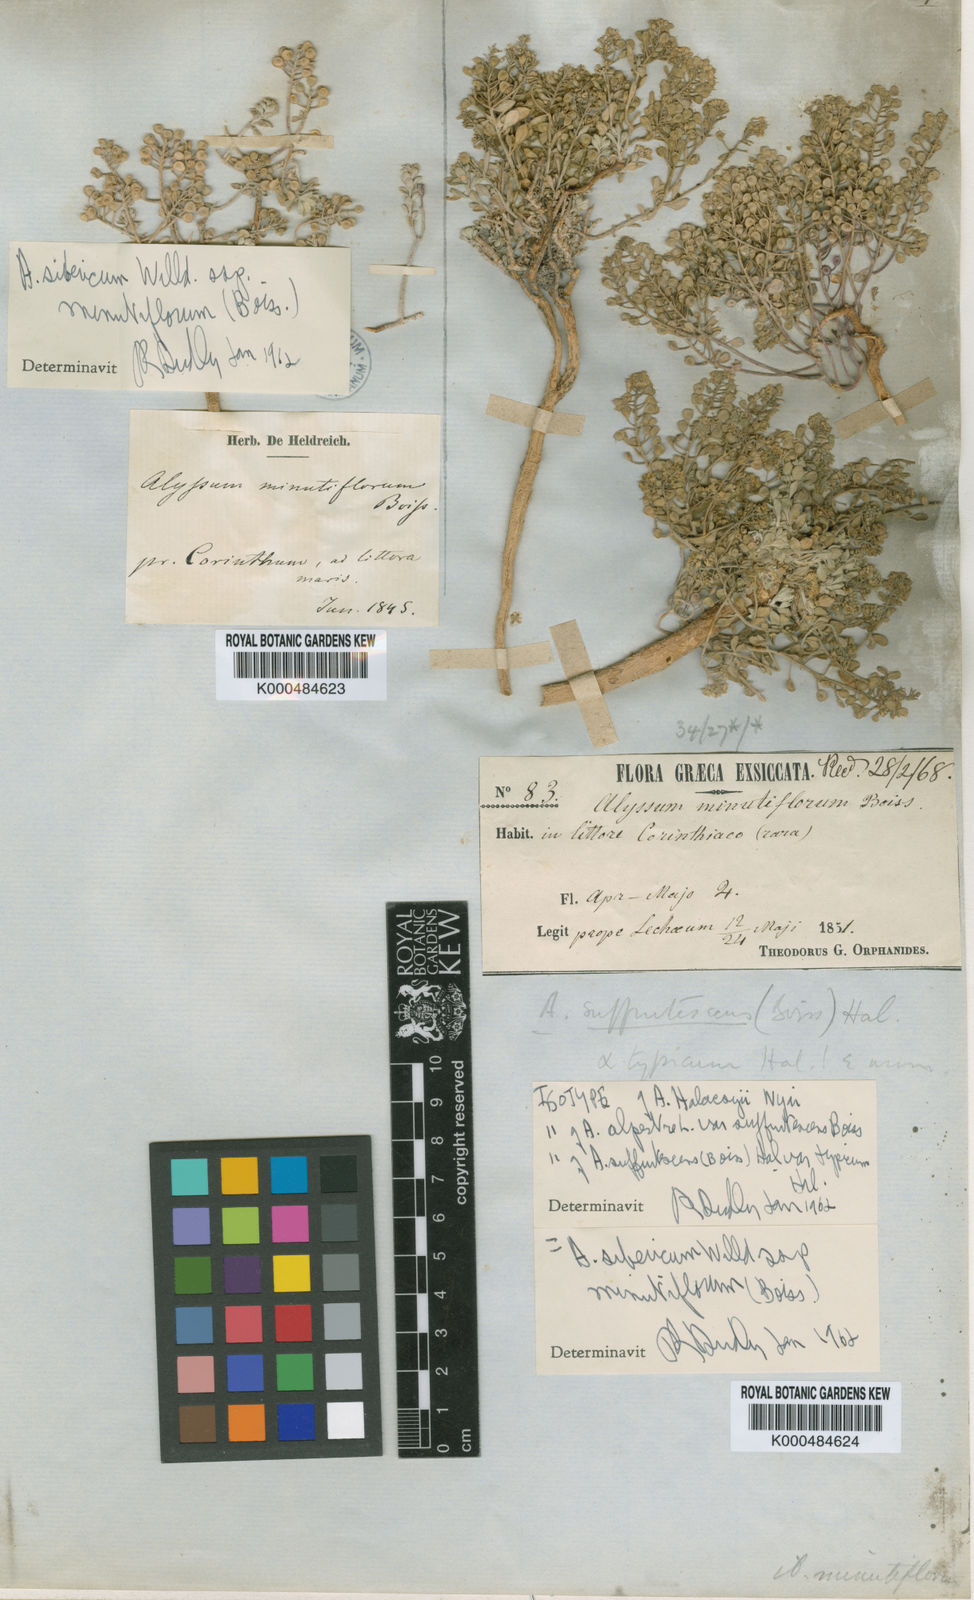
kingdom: Plantae
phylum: Tracheophyta
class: Magnoliopsida
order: Brassicales
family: Brassicaceae
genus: Odontarrhena
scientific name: Odontarrhena sibirica
